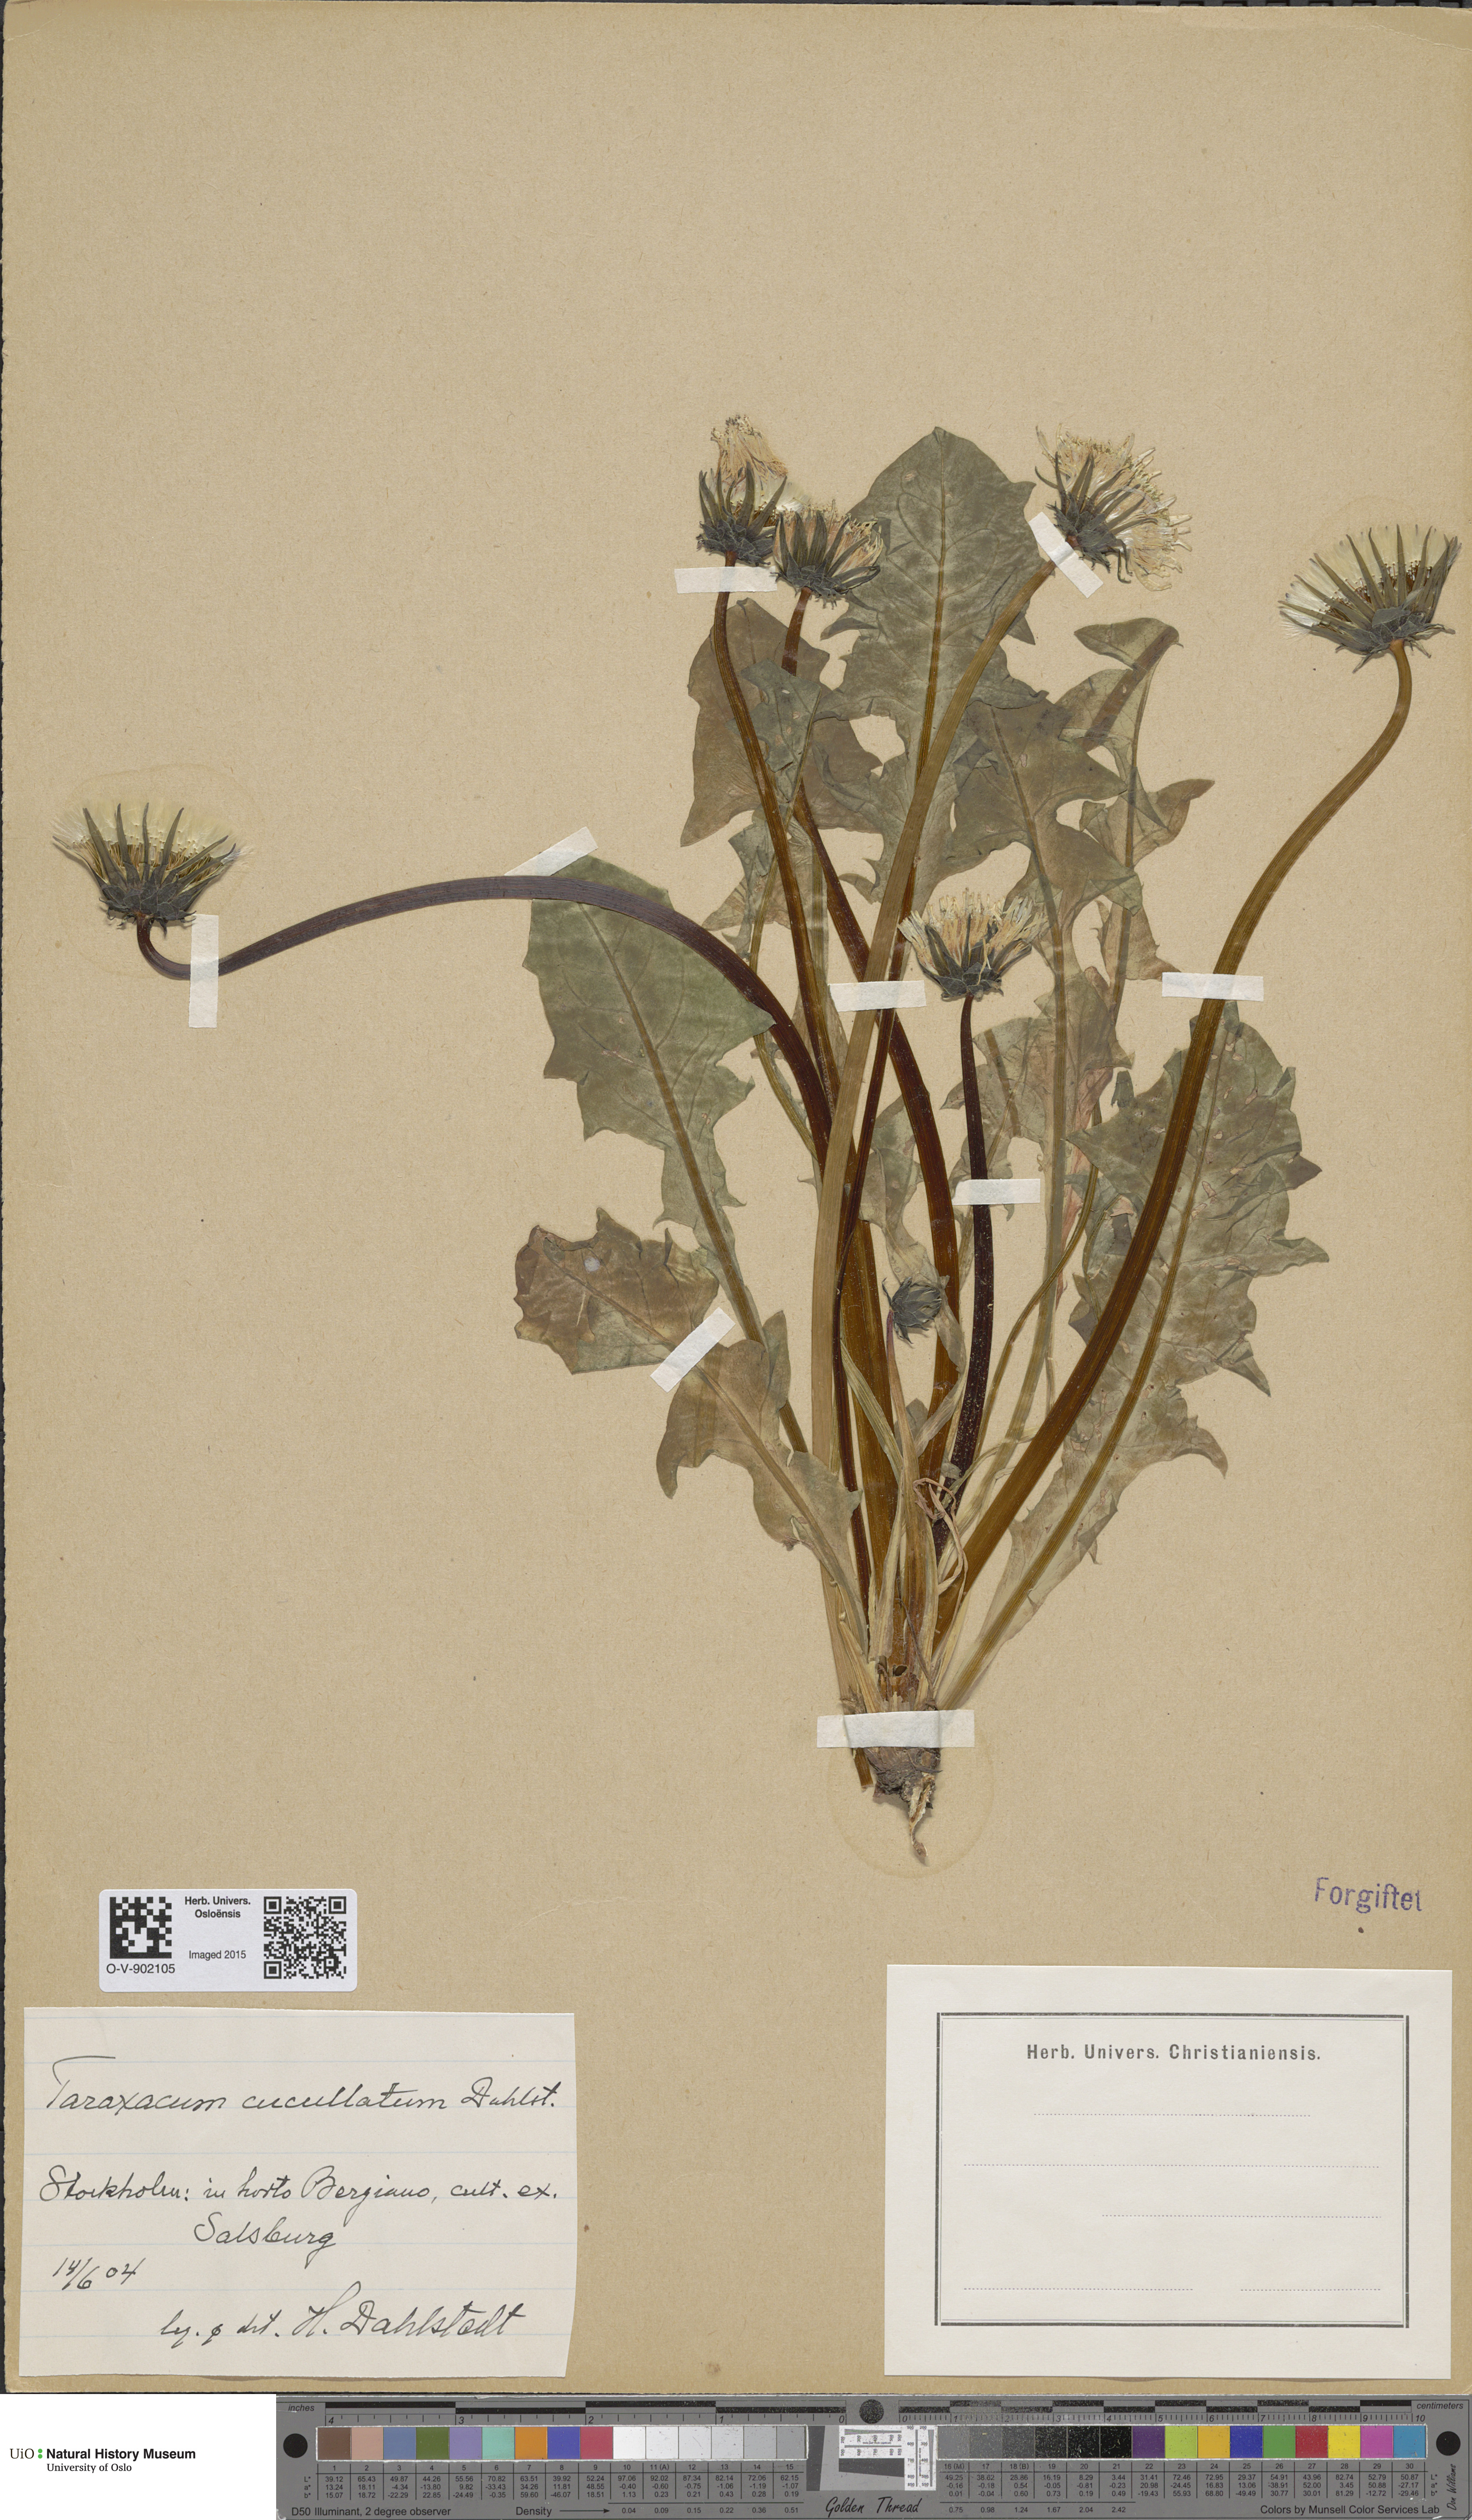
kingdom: Plantae
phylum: Tracheophyta
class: Magnoliopsida
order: Asterales
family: Asteraceae
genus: Taraxacum
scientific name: Taraxacum cucullatum
